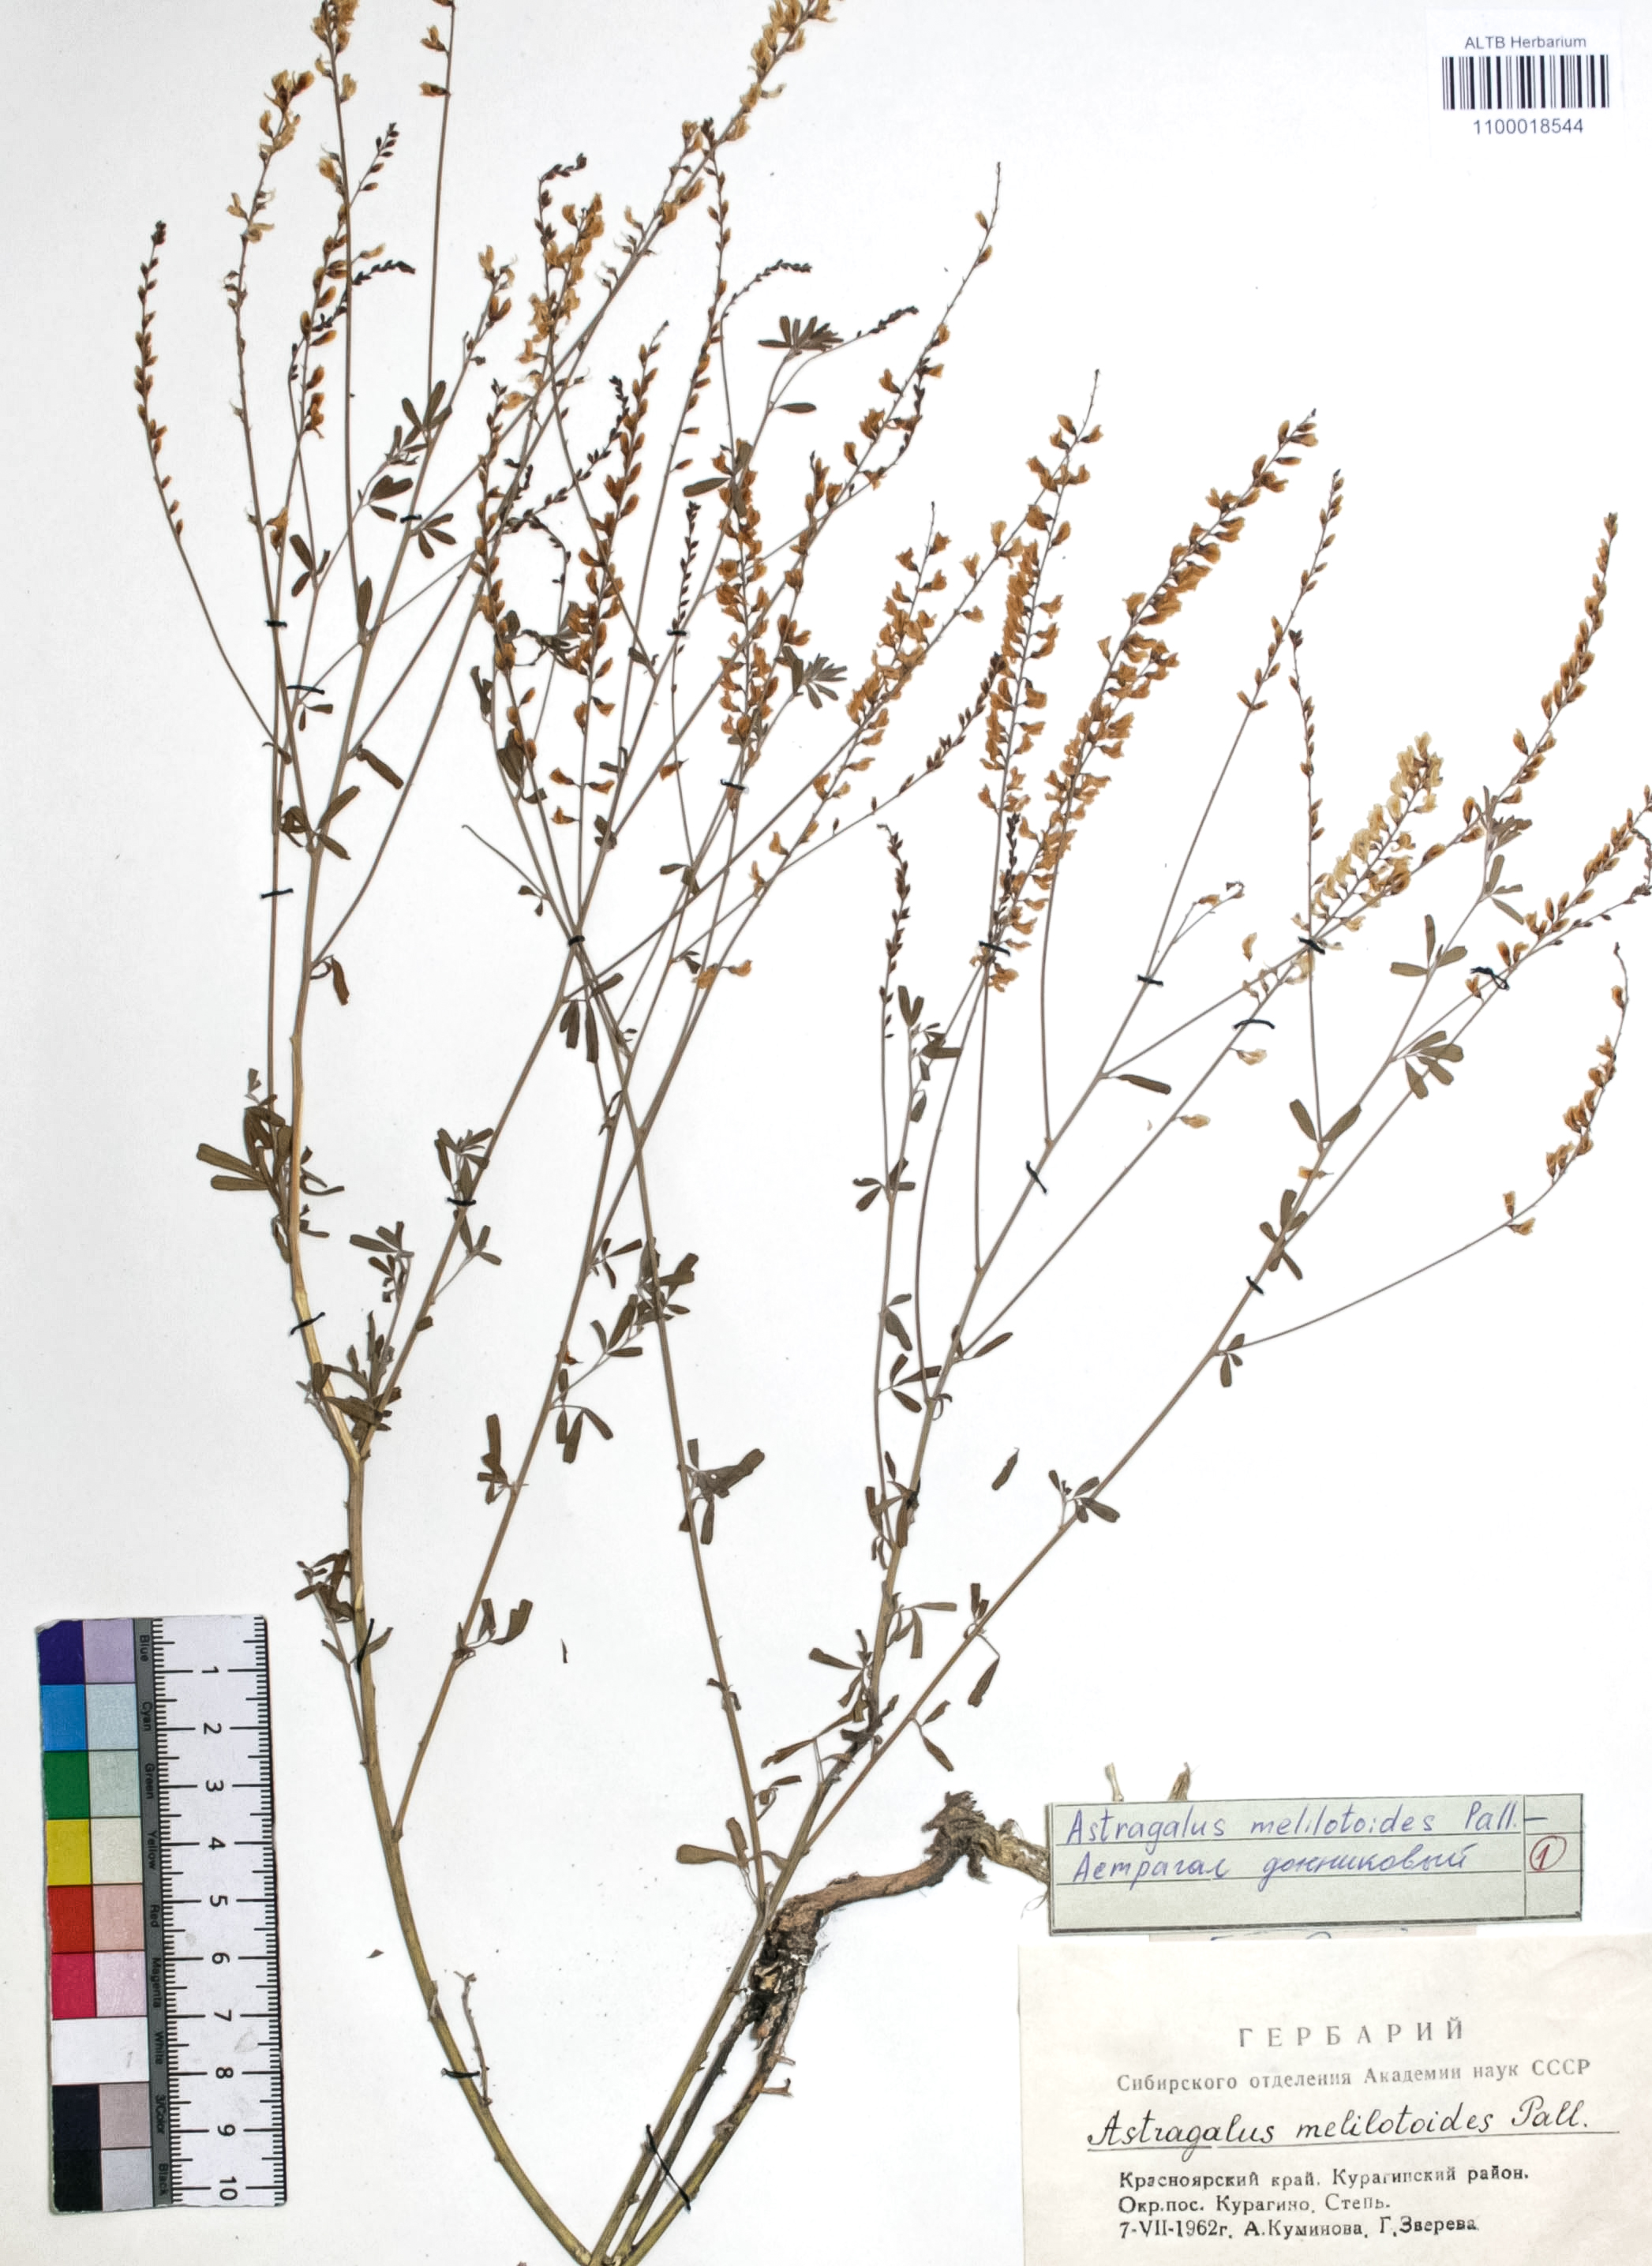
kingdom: Plantae
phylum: Tracheophyta
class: Magnoliopsida
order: Fabales
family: Fabaceae
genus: Astragalus
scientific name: Astragalus melilotoides
